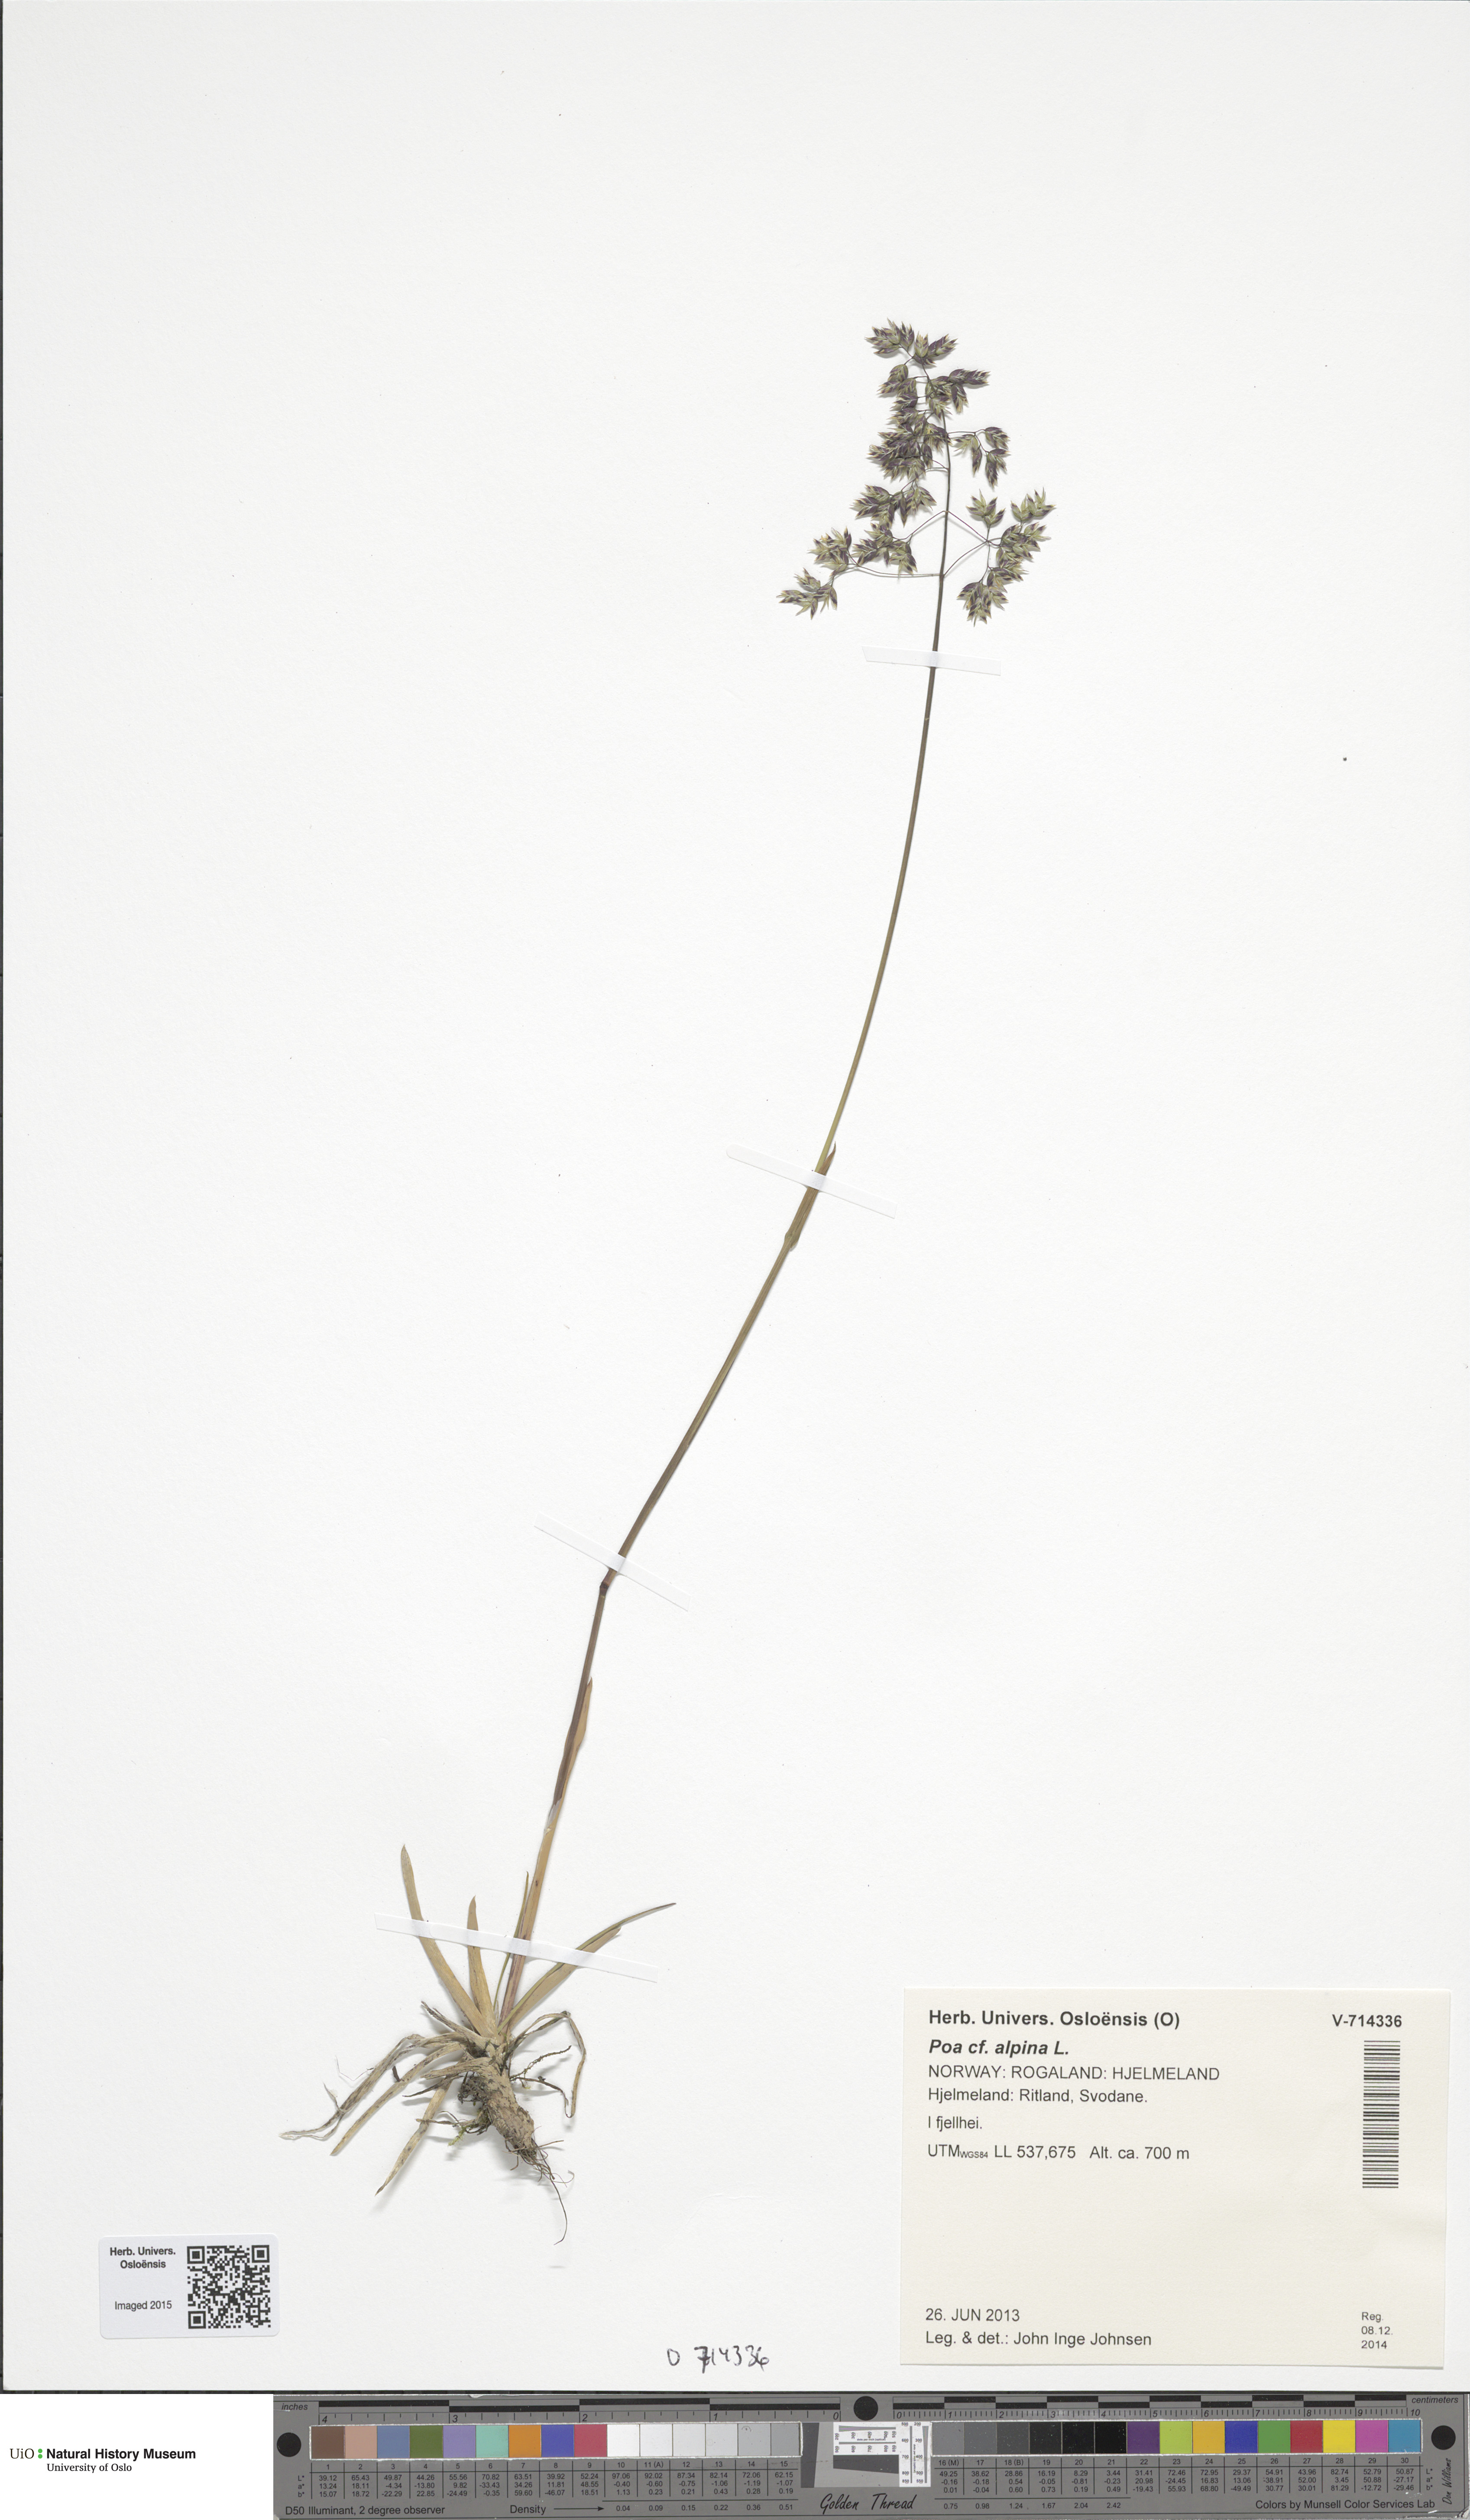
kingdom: Plantae
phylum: Tracheophyta
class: Liliopsida
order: Poales
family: Poaceae
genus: Poa
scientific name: Poa alpina
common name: Alpine bluegrass
